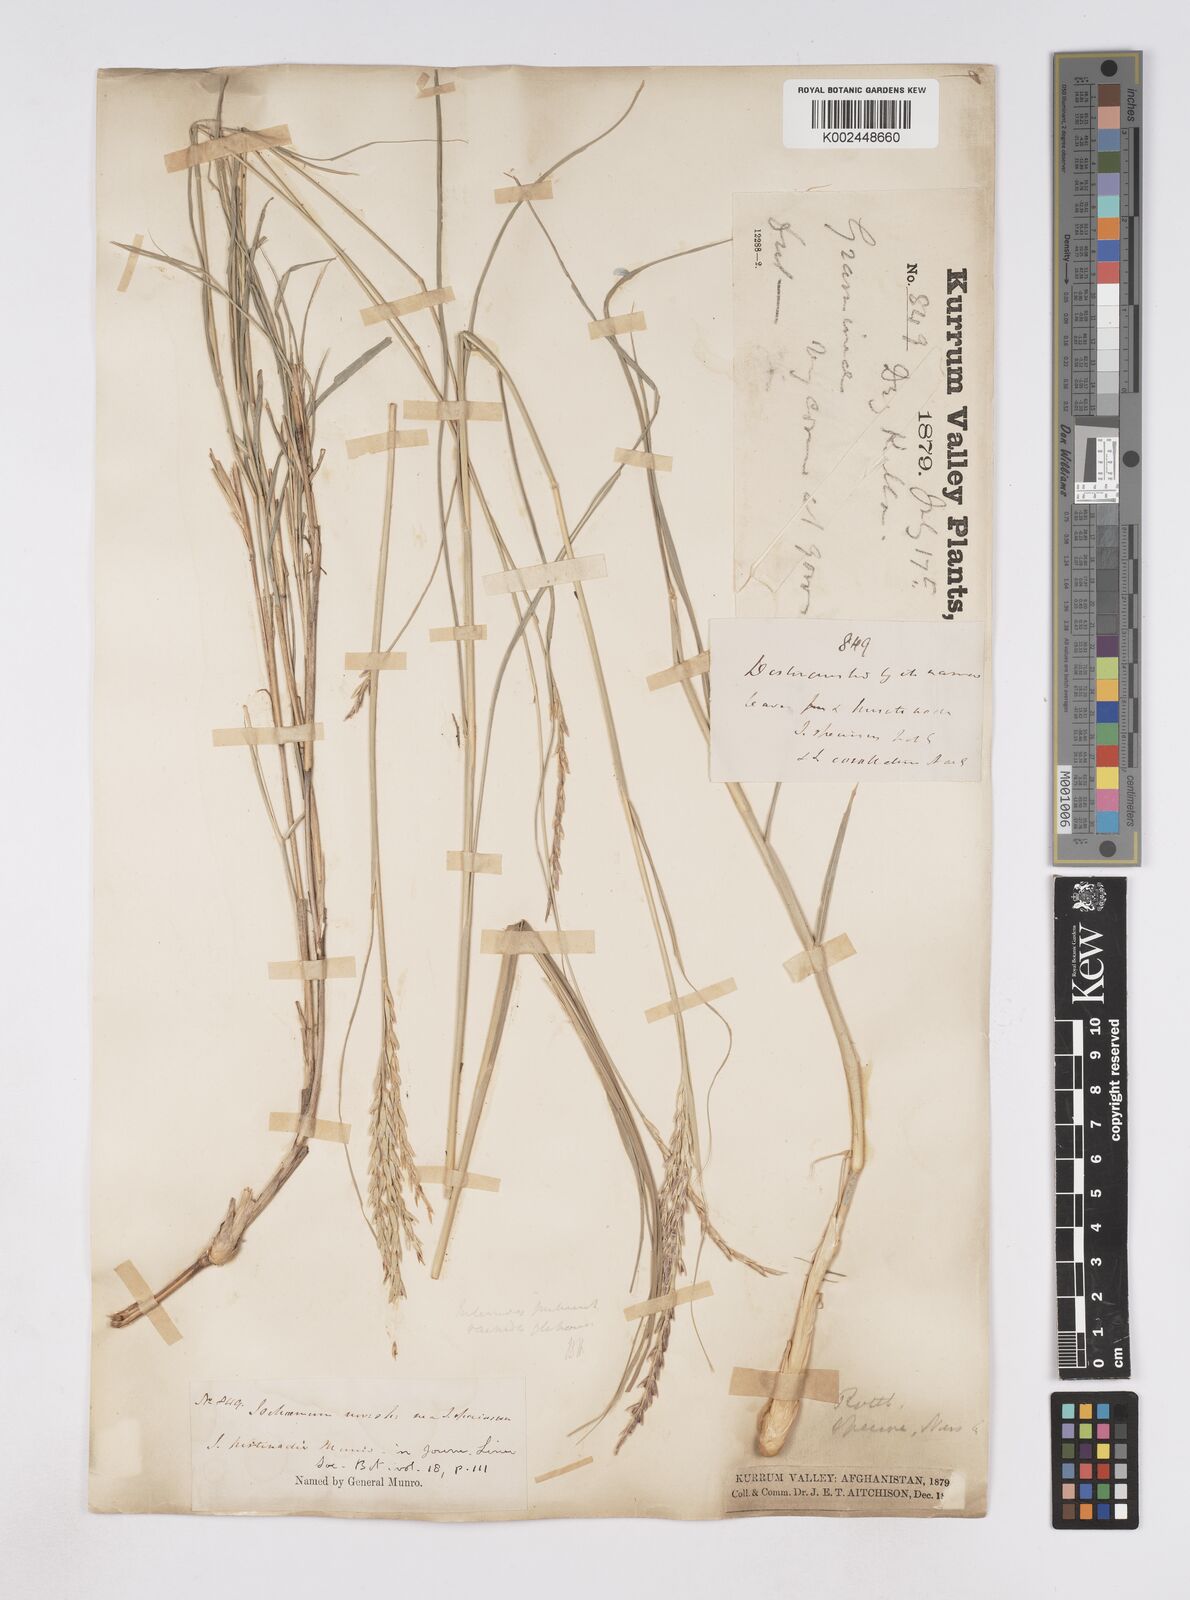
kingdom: Plantae
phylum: Tracheophyta
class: Liliopsida
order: Poales
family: Poaceae
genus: Phacelurus
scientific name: Phacelurus speciosus
